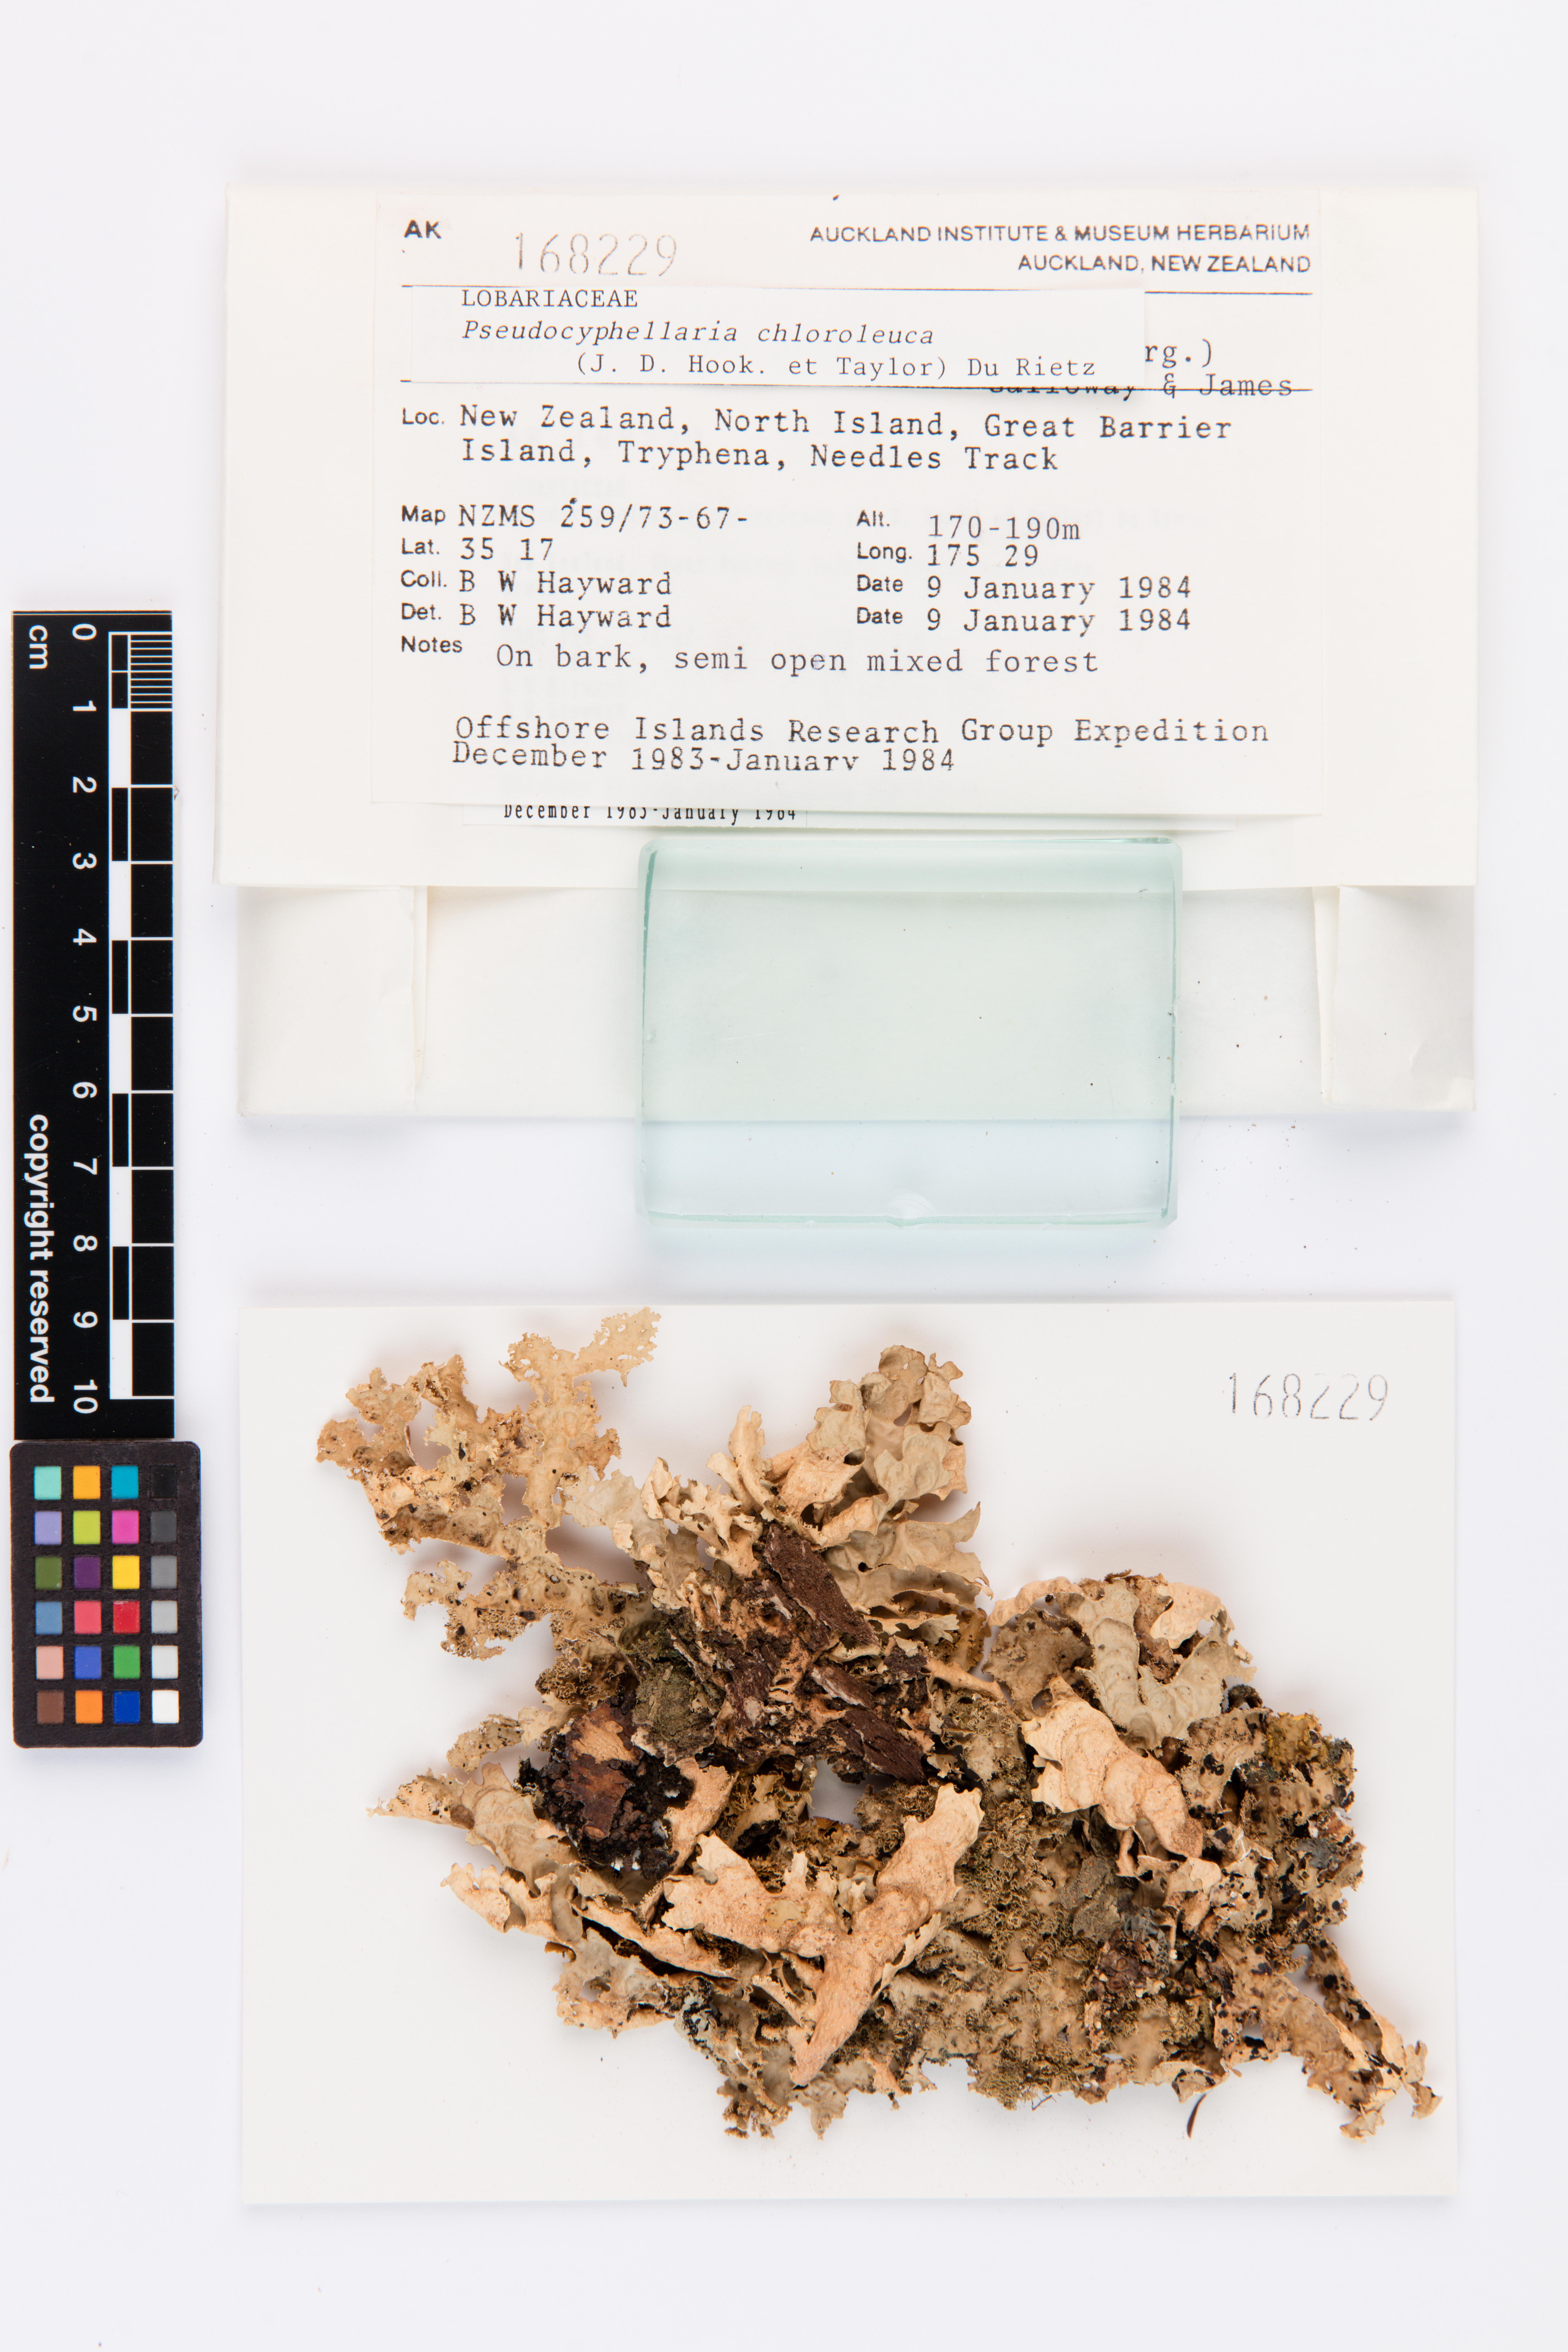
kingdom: Fungi
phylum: Ascomycota
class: Lecanoromycetes
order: Peltigerales
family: Lobariaceae
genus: Pseudocyphellaria
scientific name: Pseudocyphellaria chloroleuca
